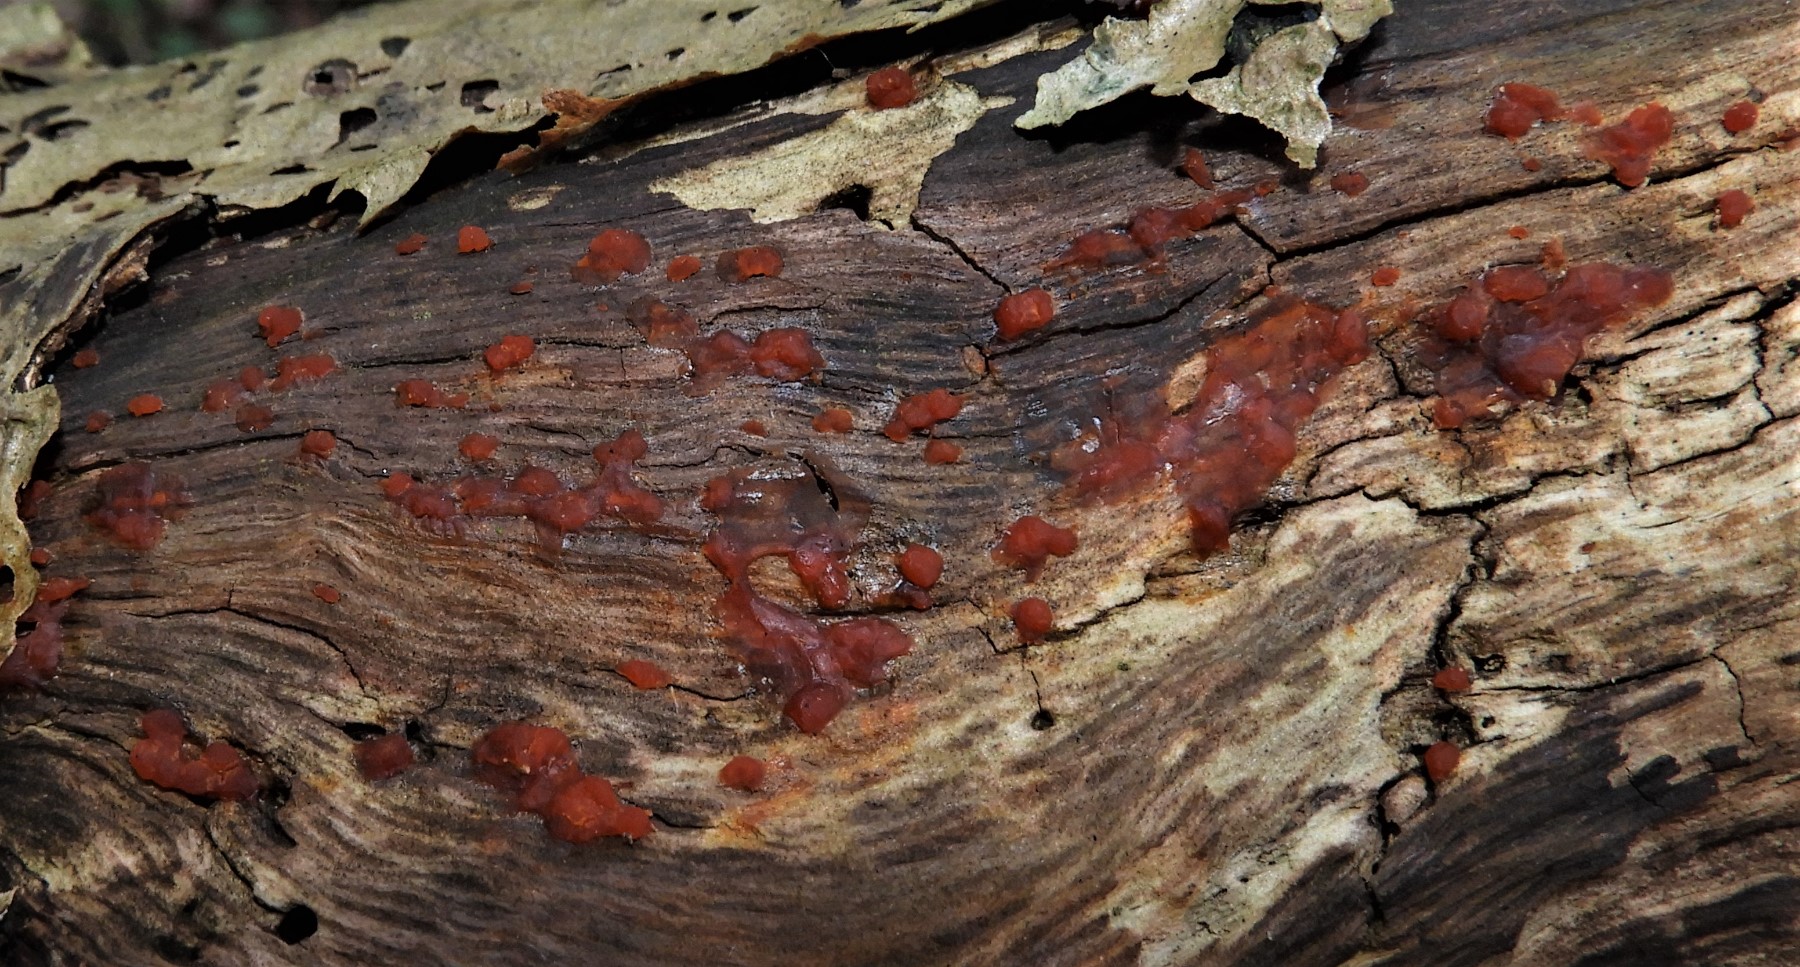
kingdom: Fungi
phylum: Basidiomycota
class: Dacrymycetes
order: Dacrymycetales
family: Dacrymycetaceae
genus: Dacrymyces
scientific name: Dacrymyces stillatus
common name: almindelig tåresvamp
